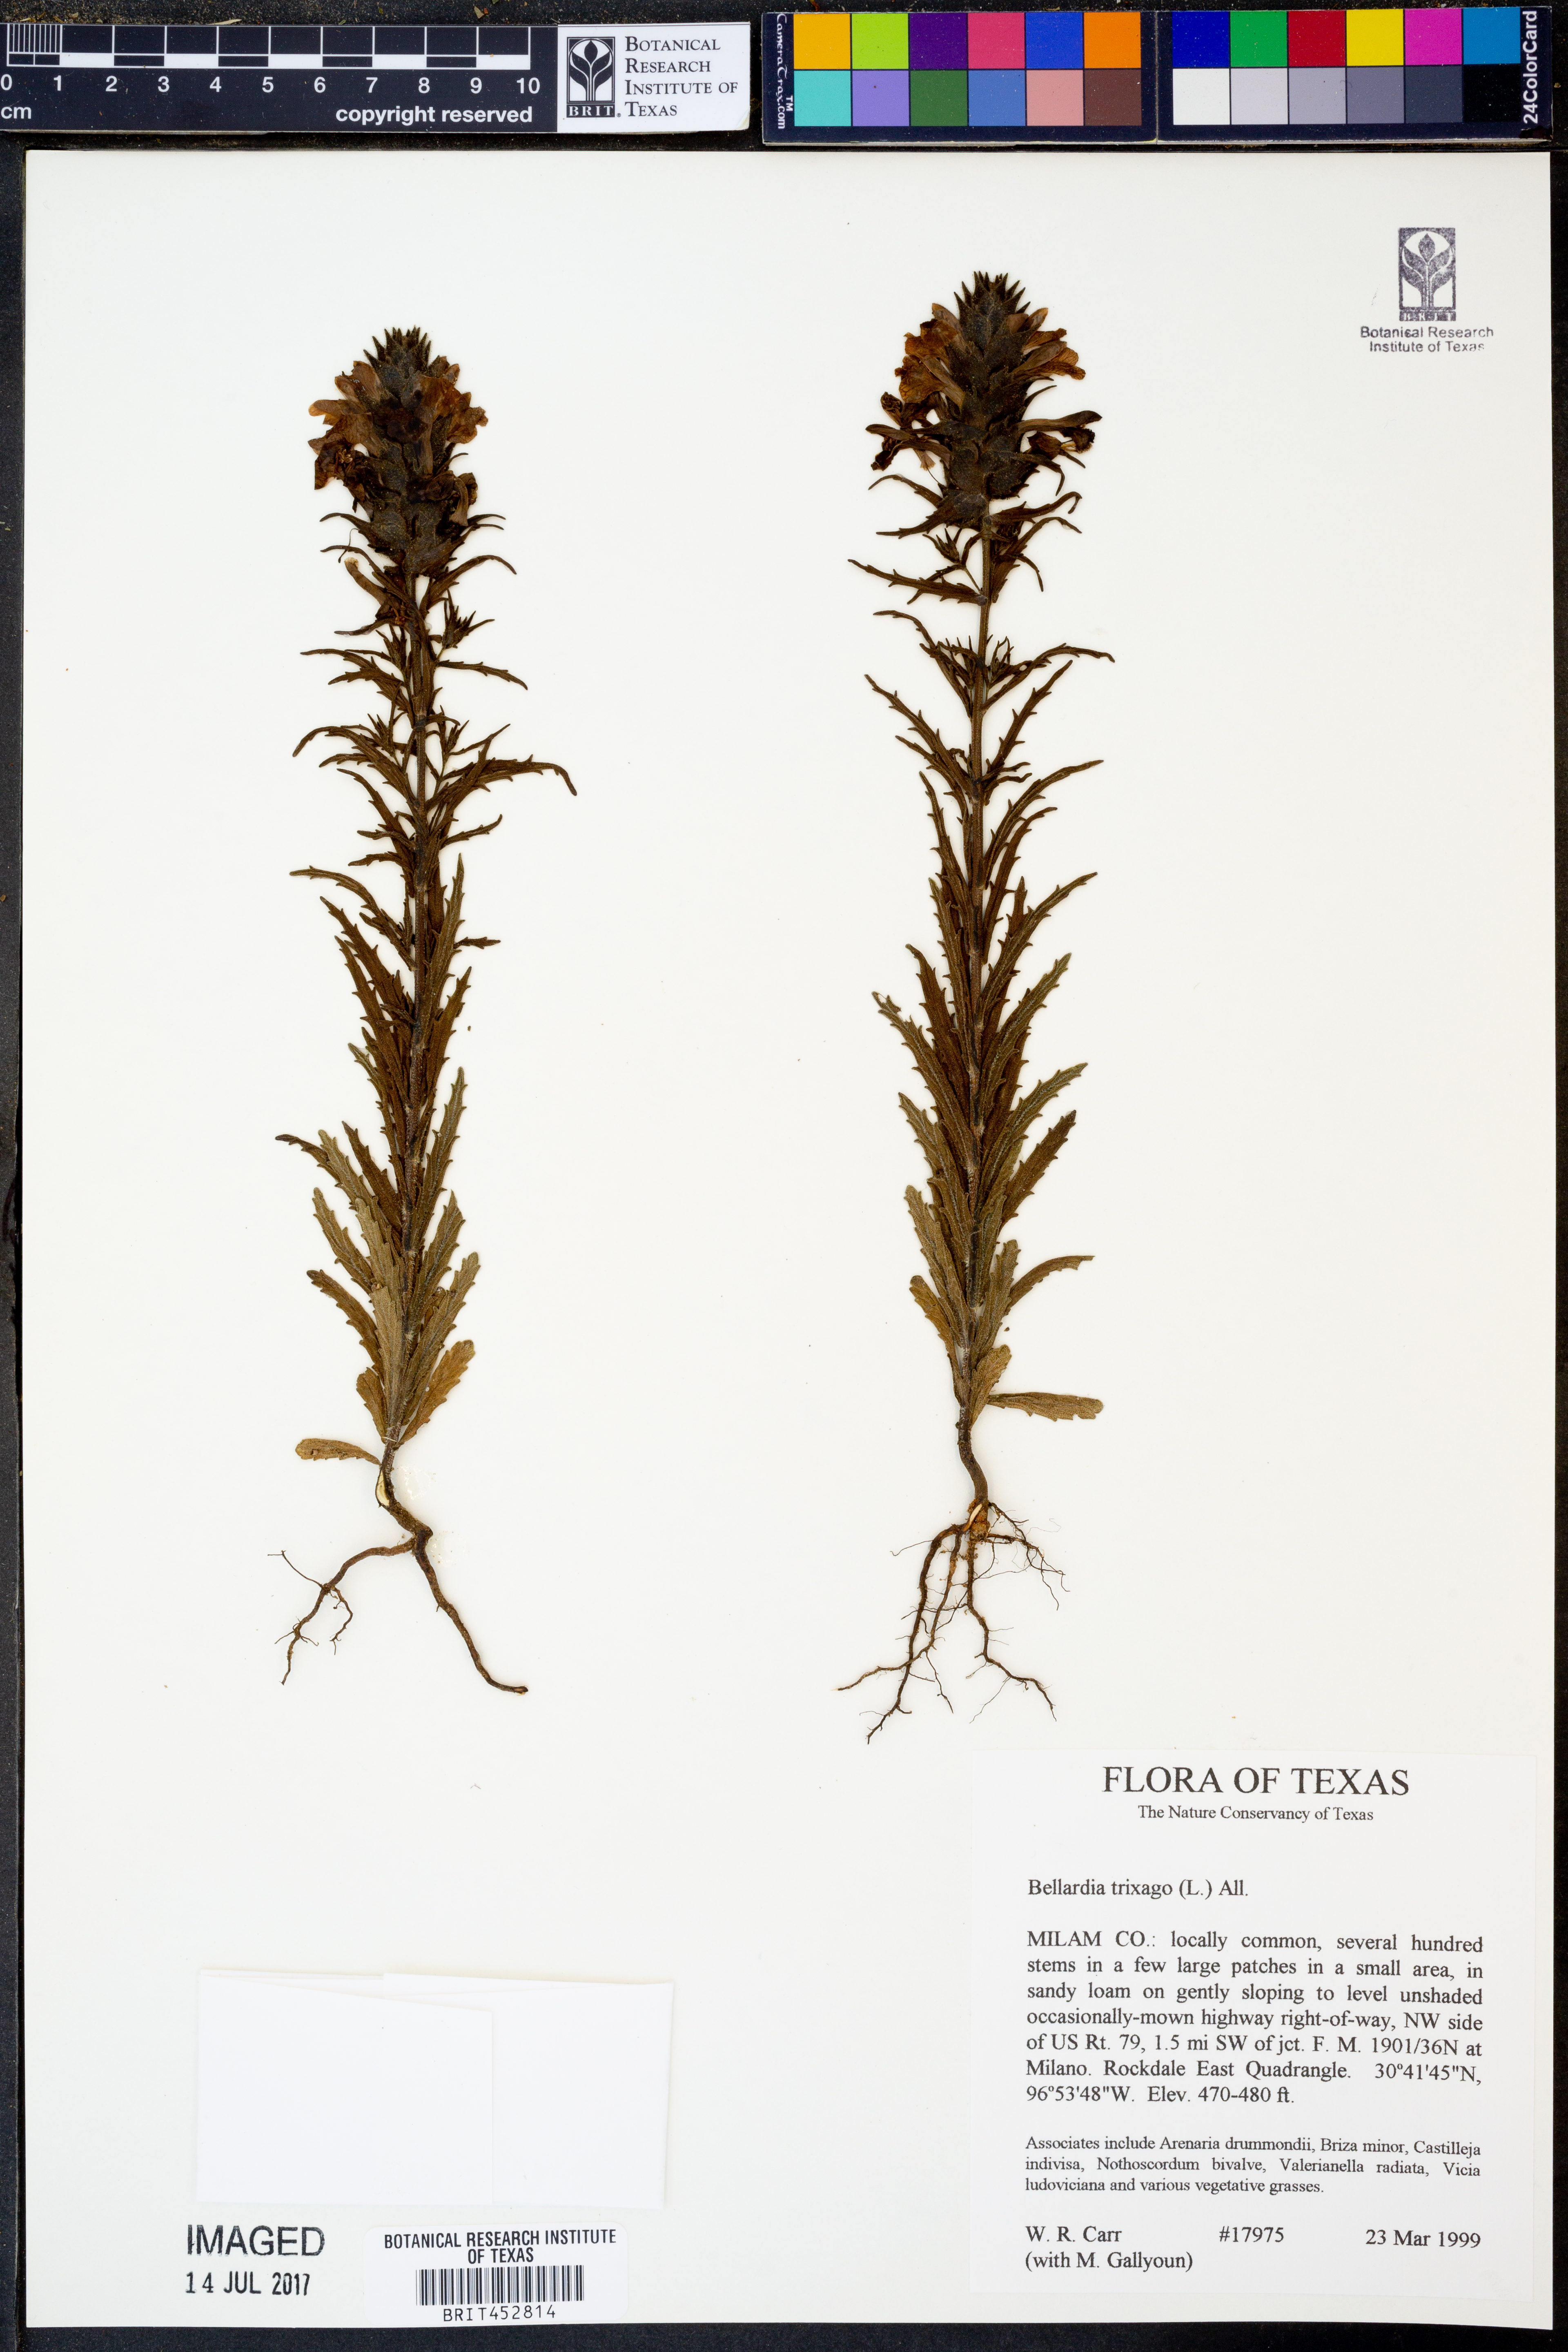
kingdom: Plantae
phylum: Tracheophyta
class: Magnoliopsida
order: Lamiales
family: Orobanchaceae
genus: Bellardia
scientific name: Bellardia trixago
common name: Mediterranean lineseed
